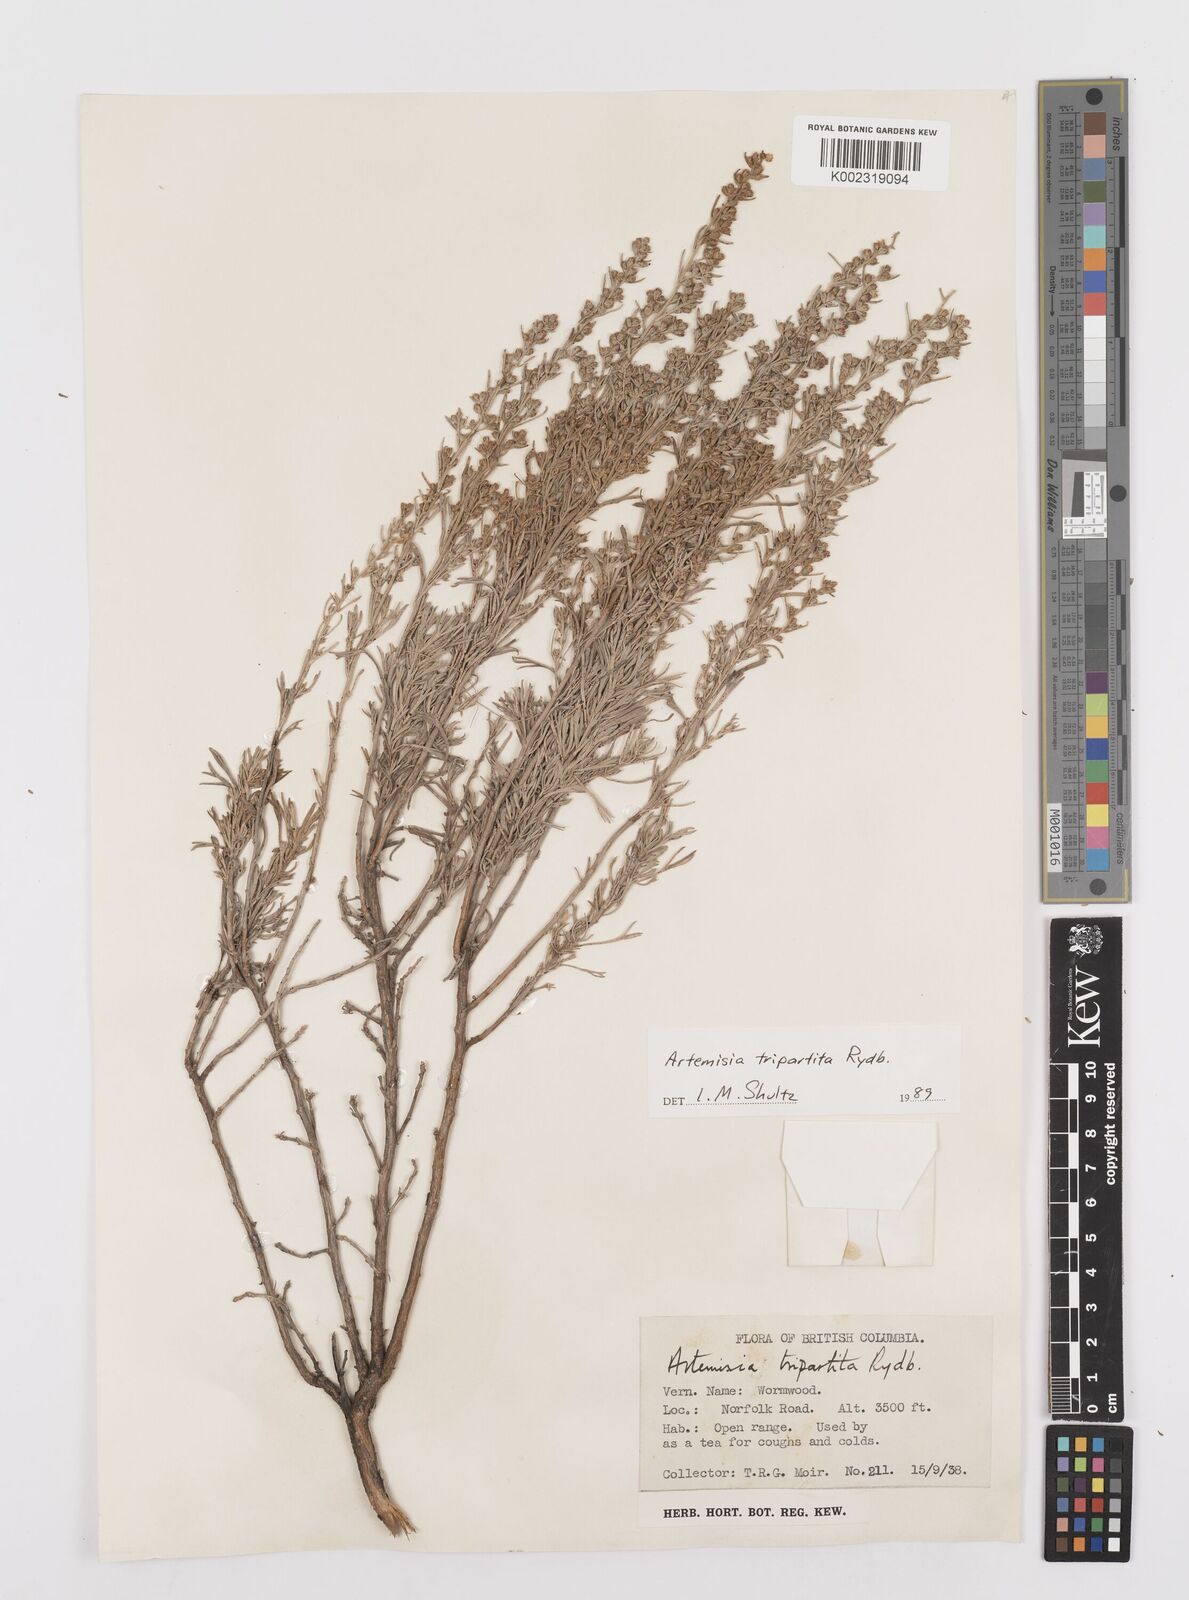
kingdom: Plantae
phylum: Tracheophyta
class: Magnoliopsida
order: Asterales
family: Asteraceae
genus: Artemisia
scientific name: Artemisia tripartita
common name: Three-tip sagebrush
